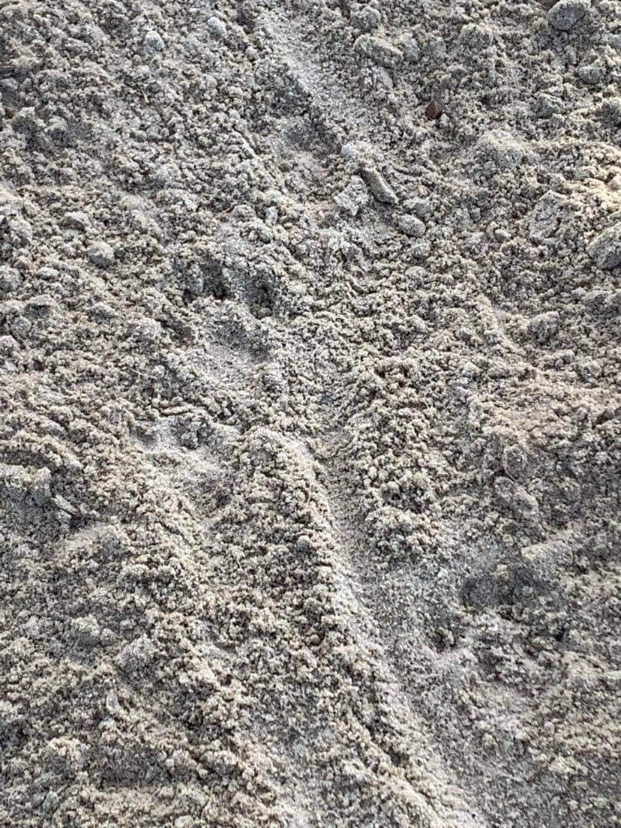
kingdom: Animalia
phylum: Chordata
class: Mammalia
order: Carnivora
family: Mustelidae
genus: Lutra
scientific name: Lutra lutra
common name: Odder
